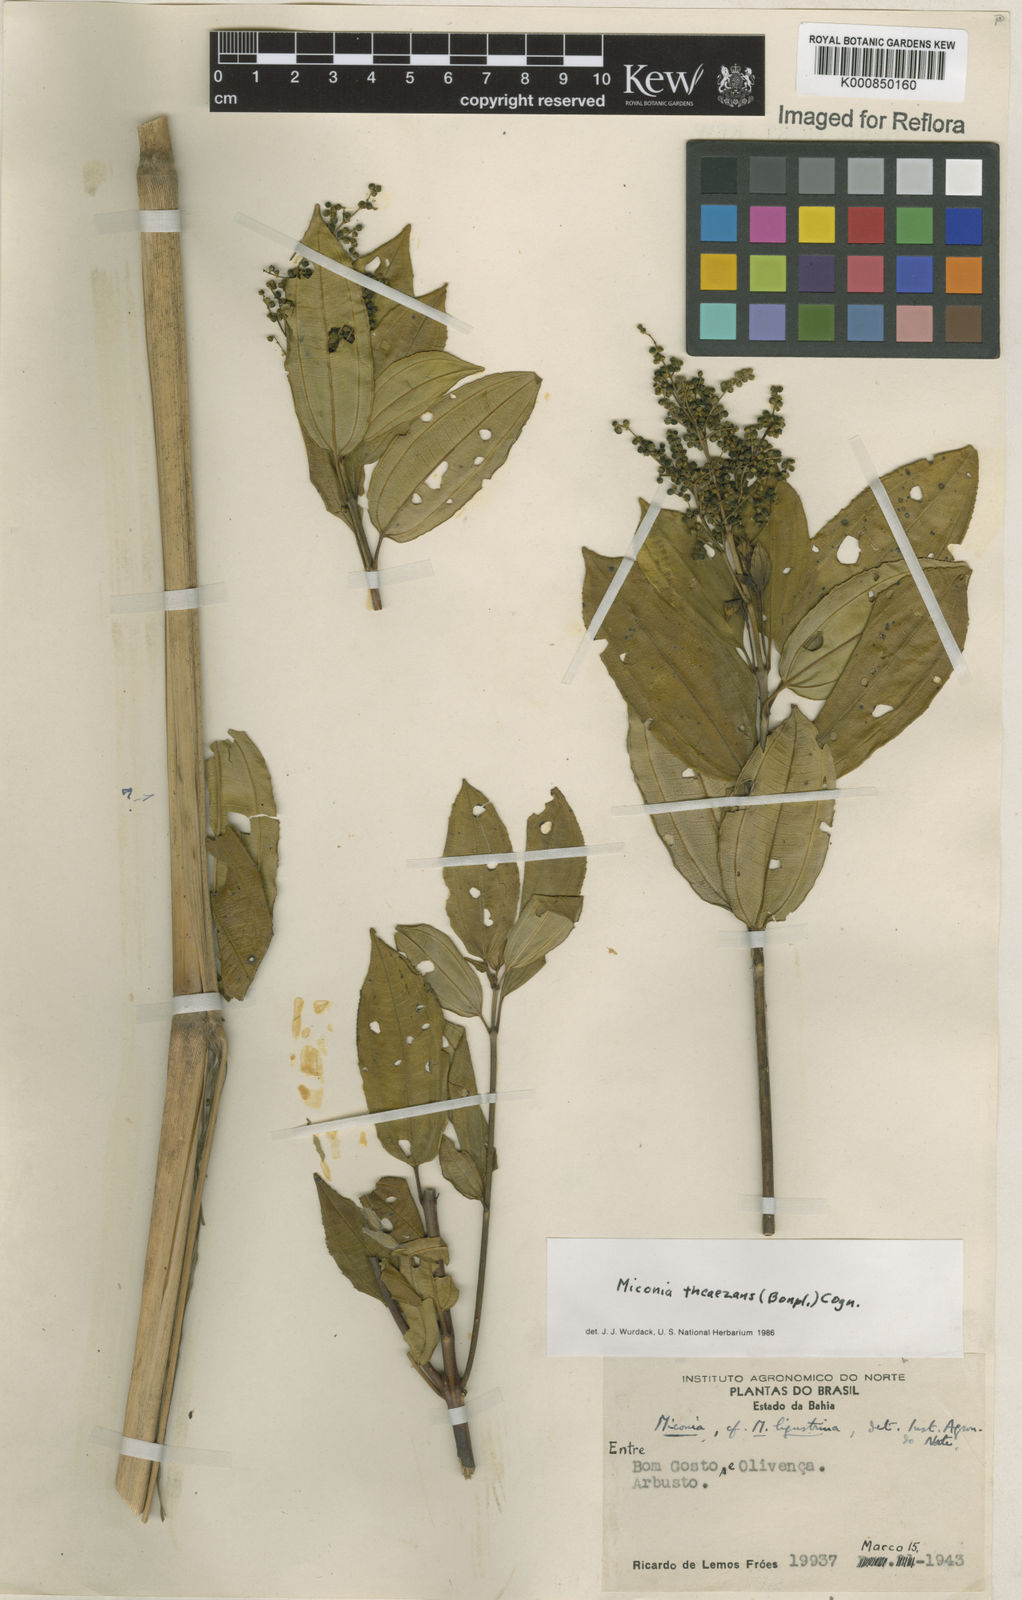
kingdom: Plantae
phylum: Tracheophyta
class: Magnoliopsida
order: Myrtales
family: Melastomataceae
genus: Miconia
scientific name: Miconia
